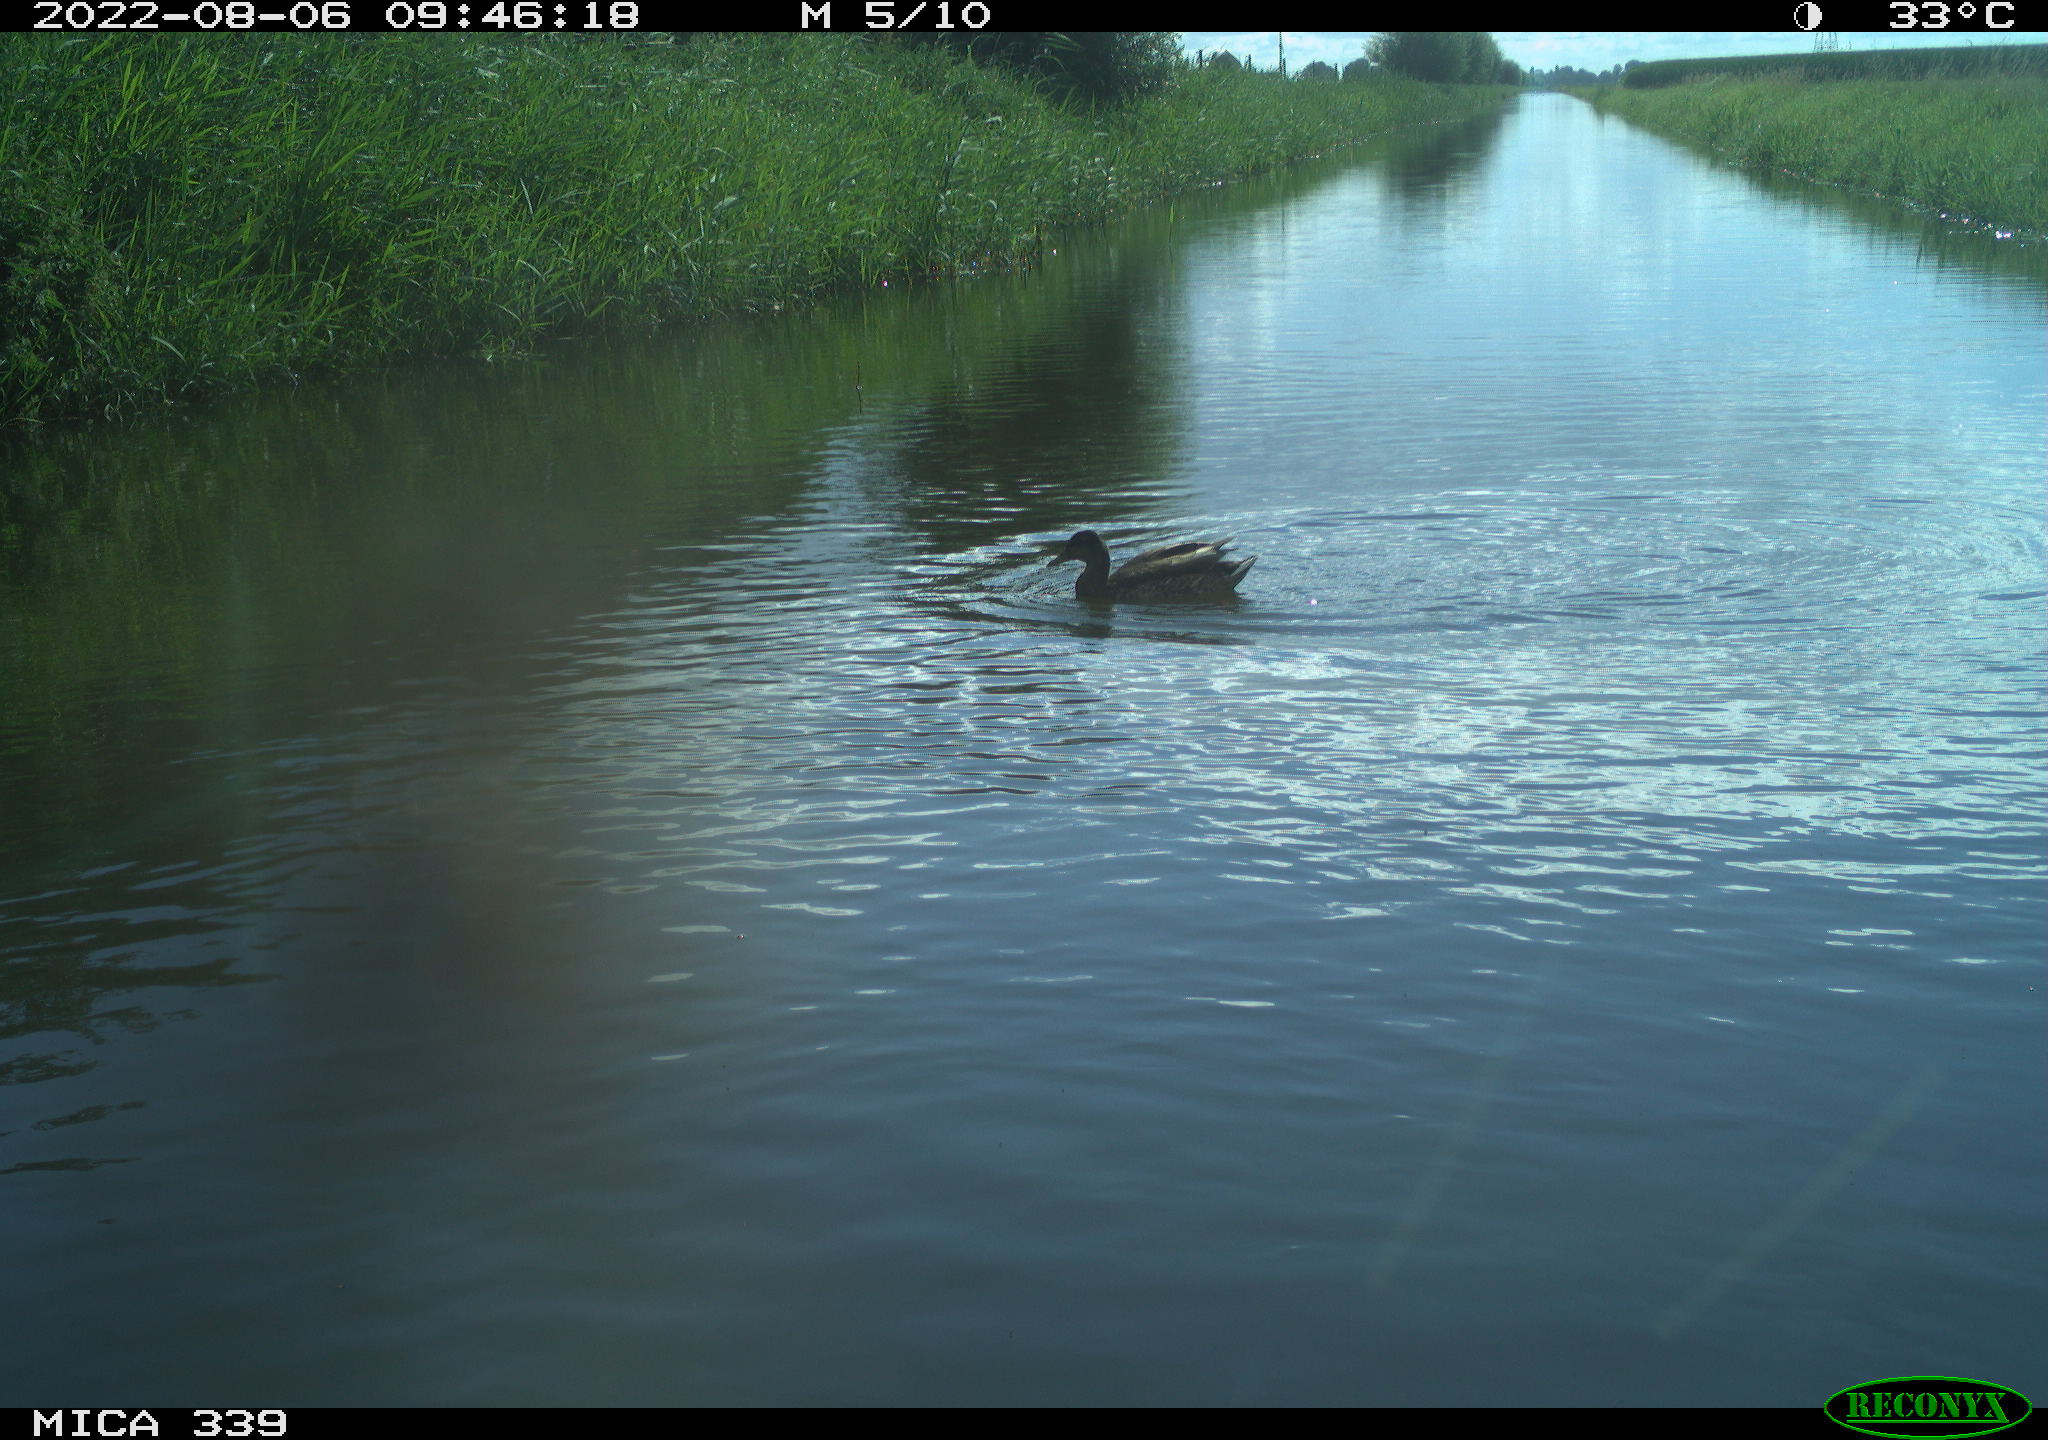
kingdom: Animalia
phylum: Chordata
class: Aves
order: Anseriformes
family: Anatidae
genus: Anas
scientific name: Anas platyrhynchos
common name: Mallard
